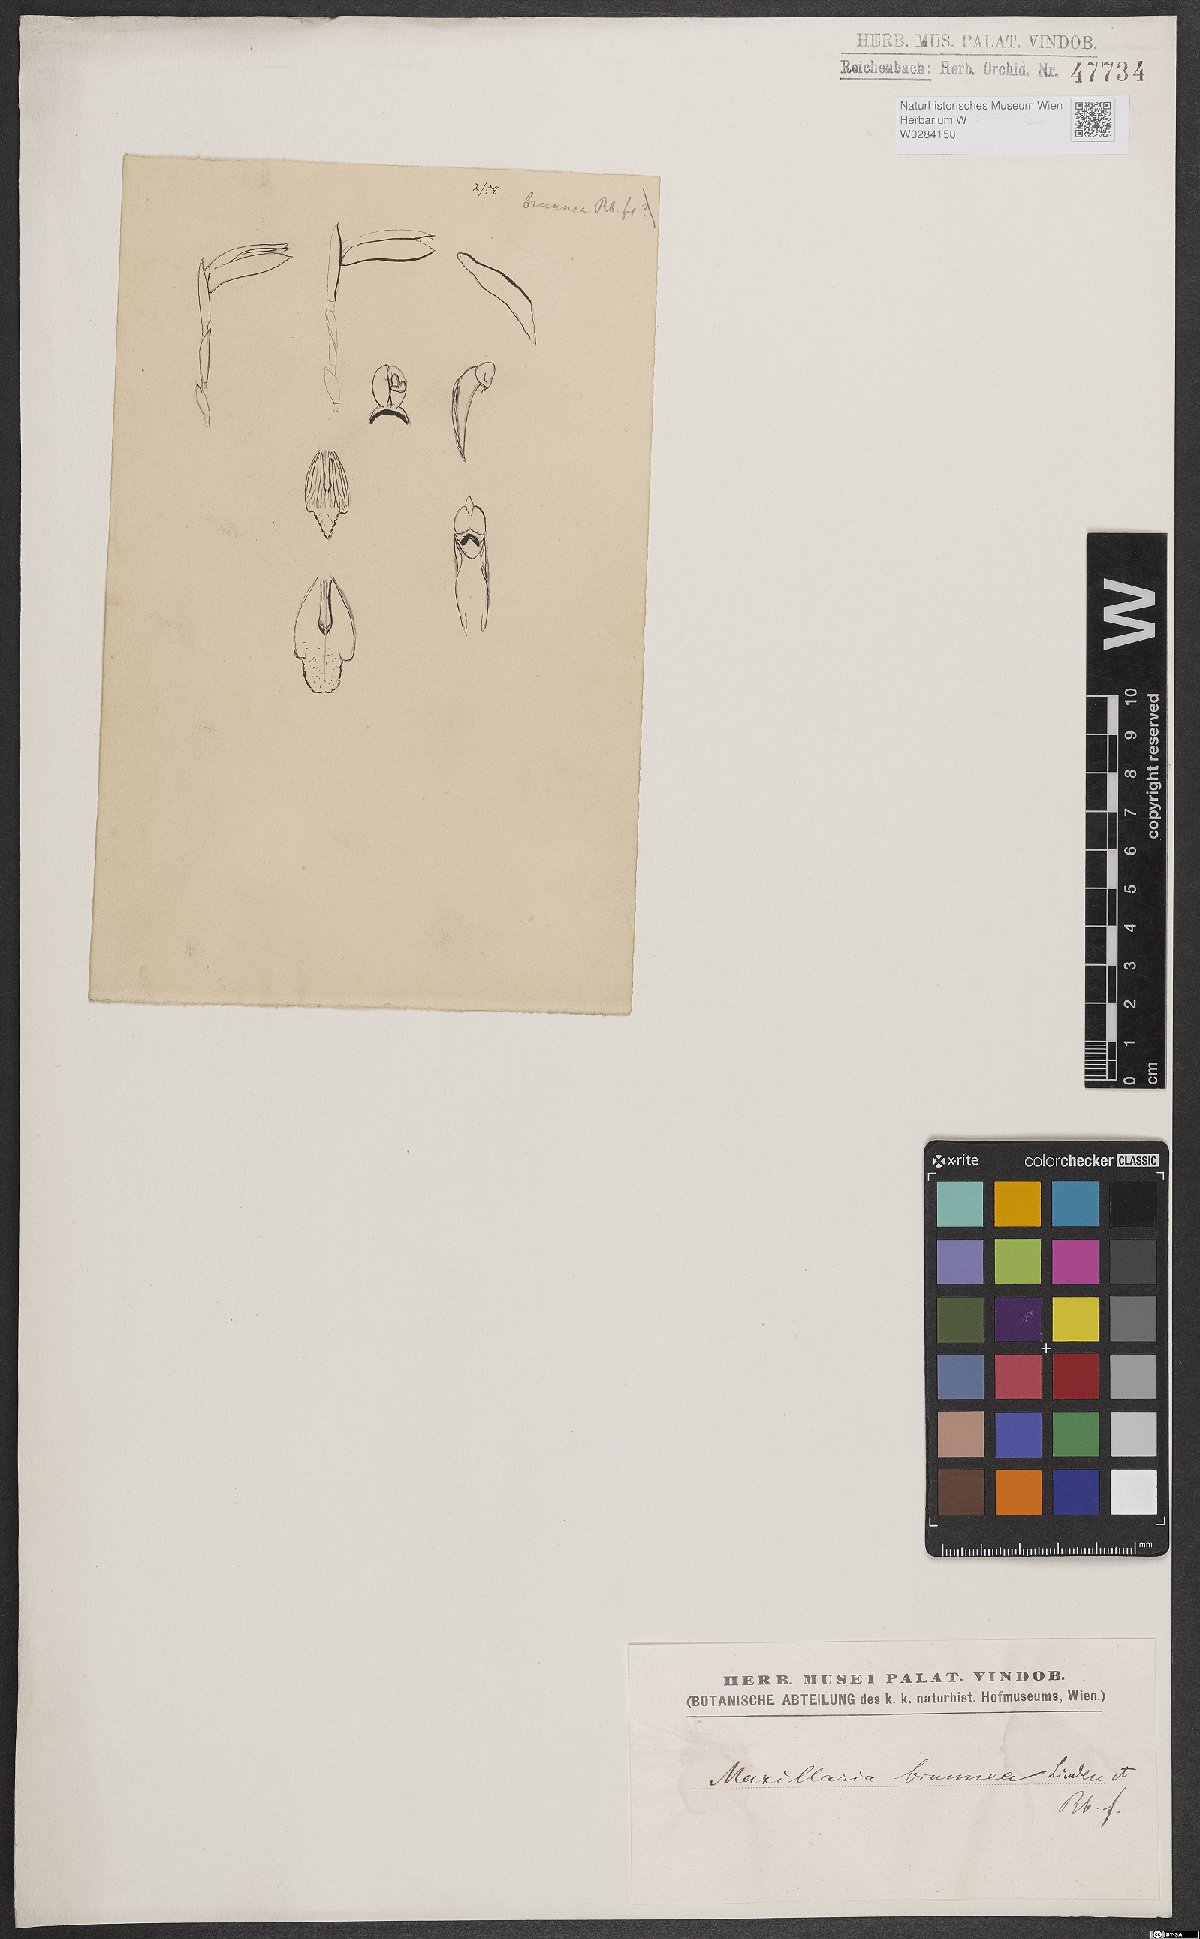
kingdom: Plantae
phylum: Tracheophyta
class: Liliopsida
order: Asparagales
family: Orchidaceae
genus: Maxillaria
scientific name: Maxillaria porrecta
